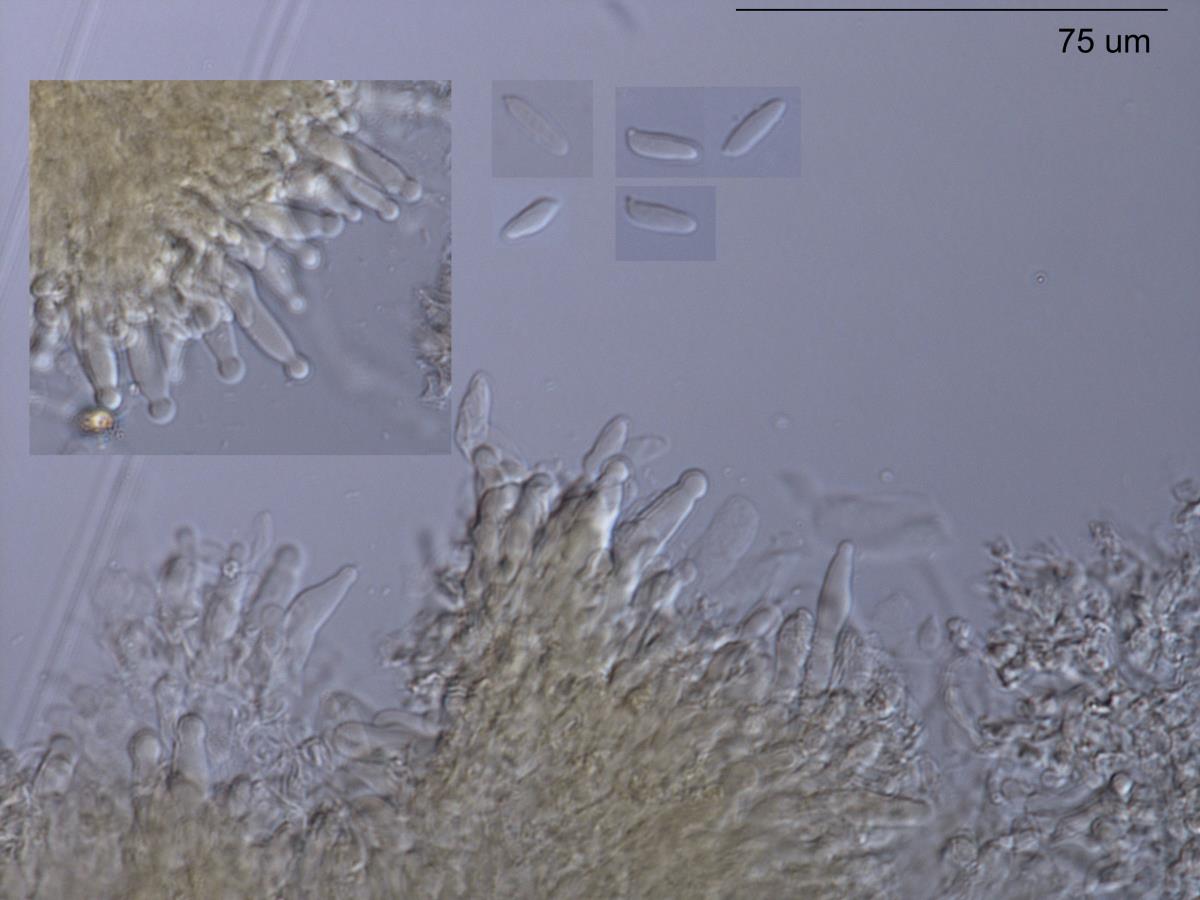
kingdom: Fungi
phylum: Basidiomycota
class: Agaricomycetes
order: Agaricales
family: Physalacriaceae
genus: Physalacria
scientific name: Physalacria cryptomeriae
